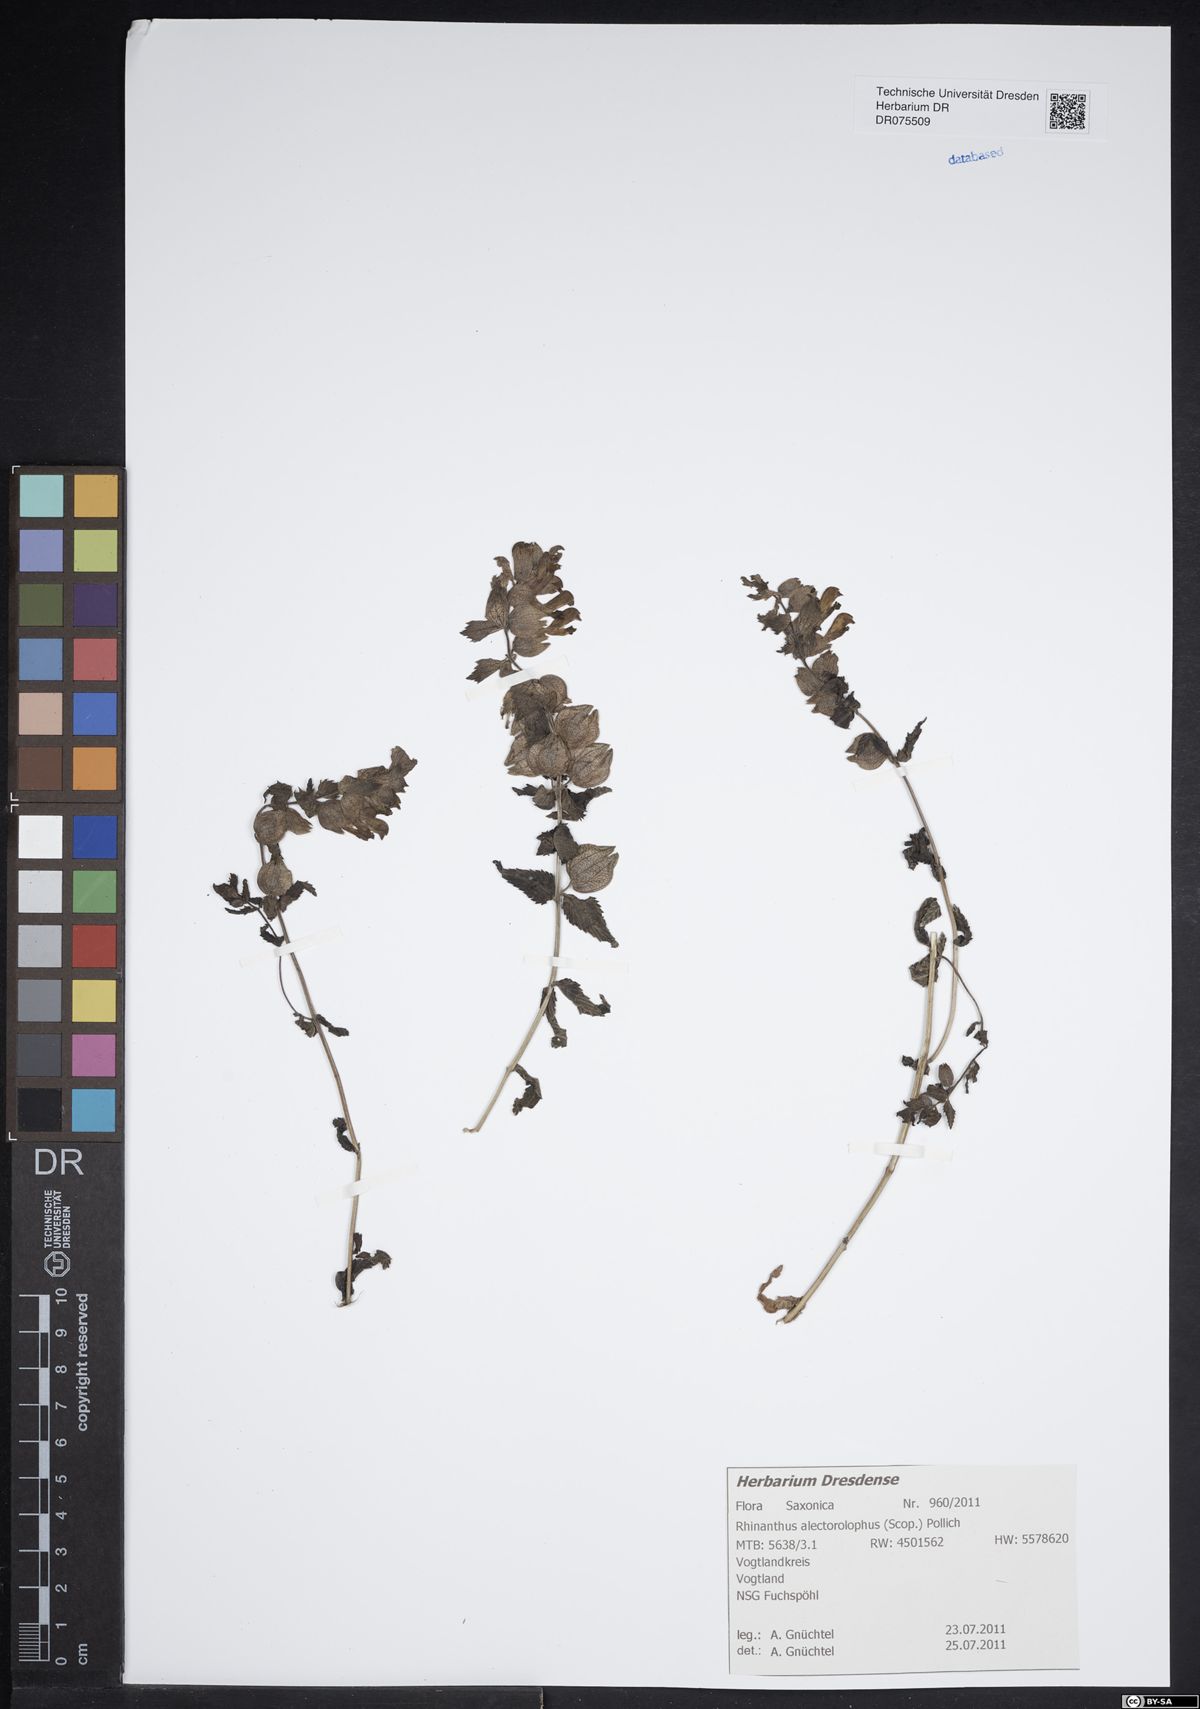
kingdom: Plantae
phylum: Tracheophyta
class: Magnoliopsida
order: Lamiales
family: Orobanchaceae
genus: Rhinanthus
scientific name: Rhinanthus alectorolophus
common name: Greater yellow-rattle
